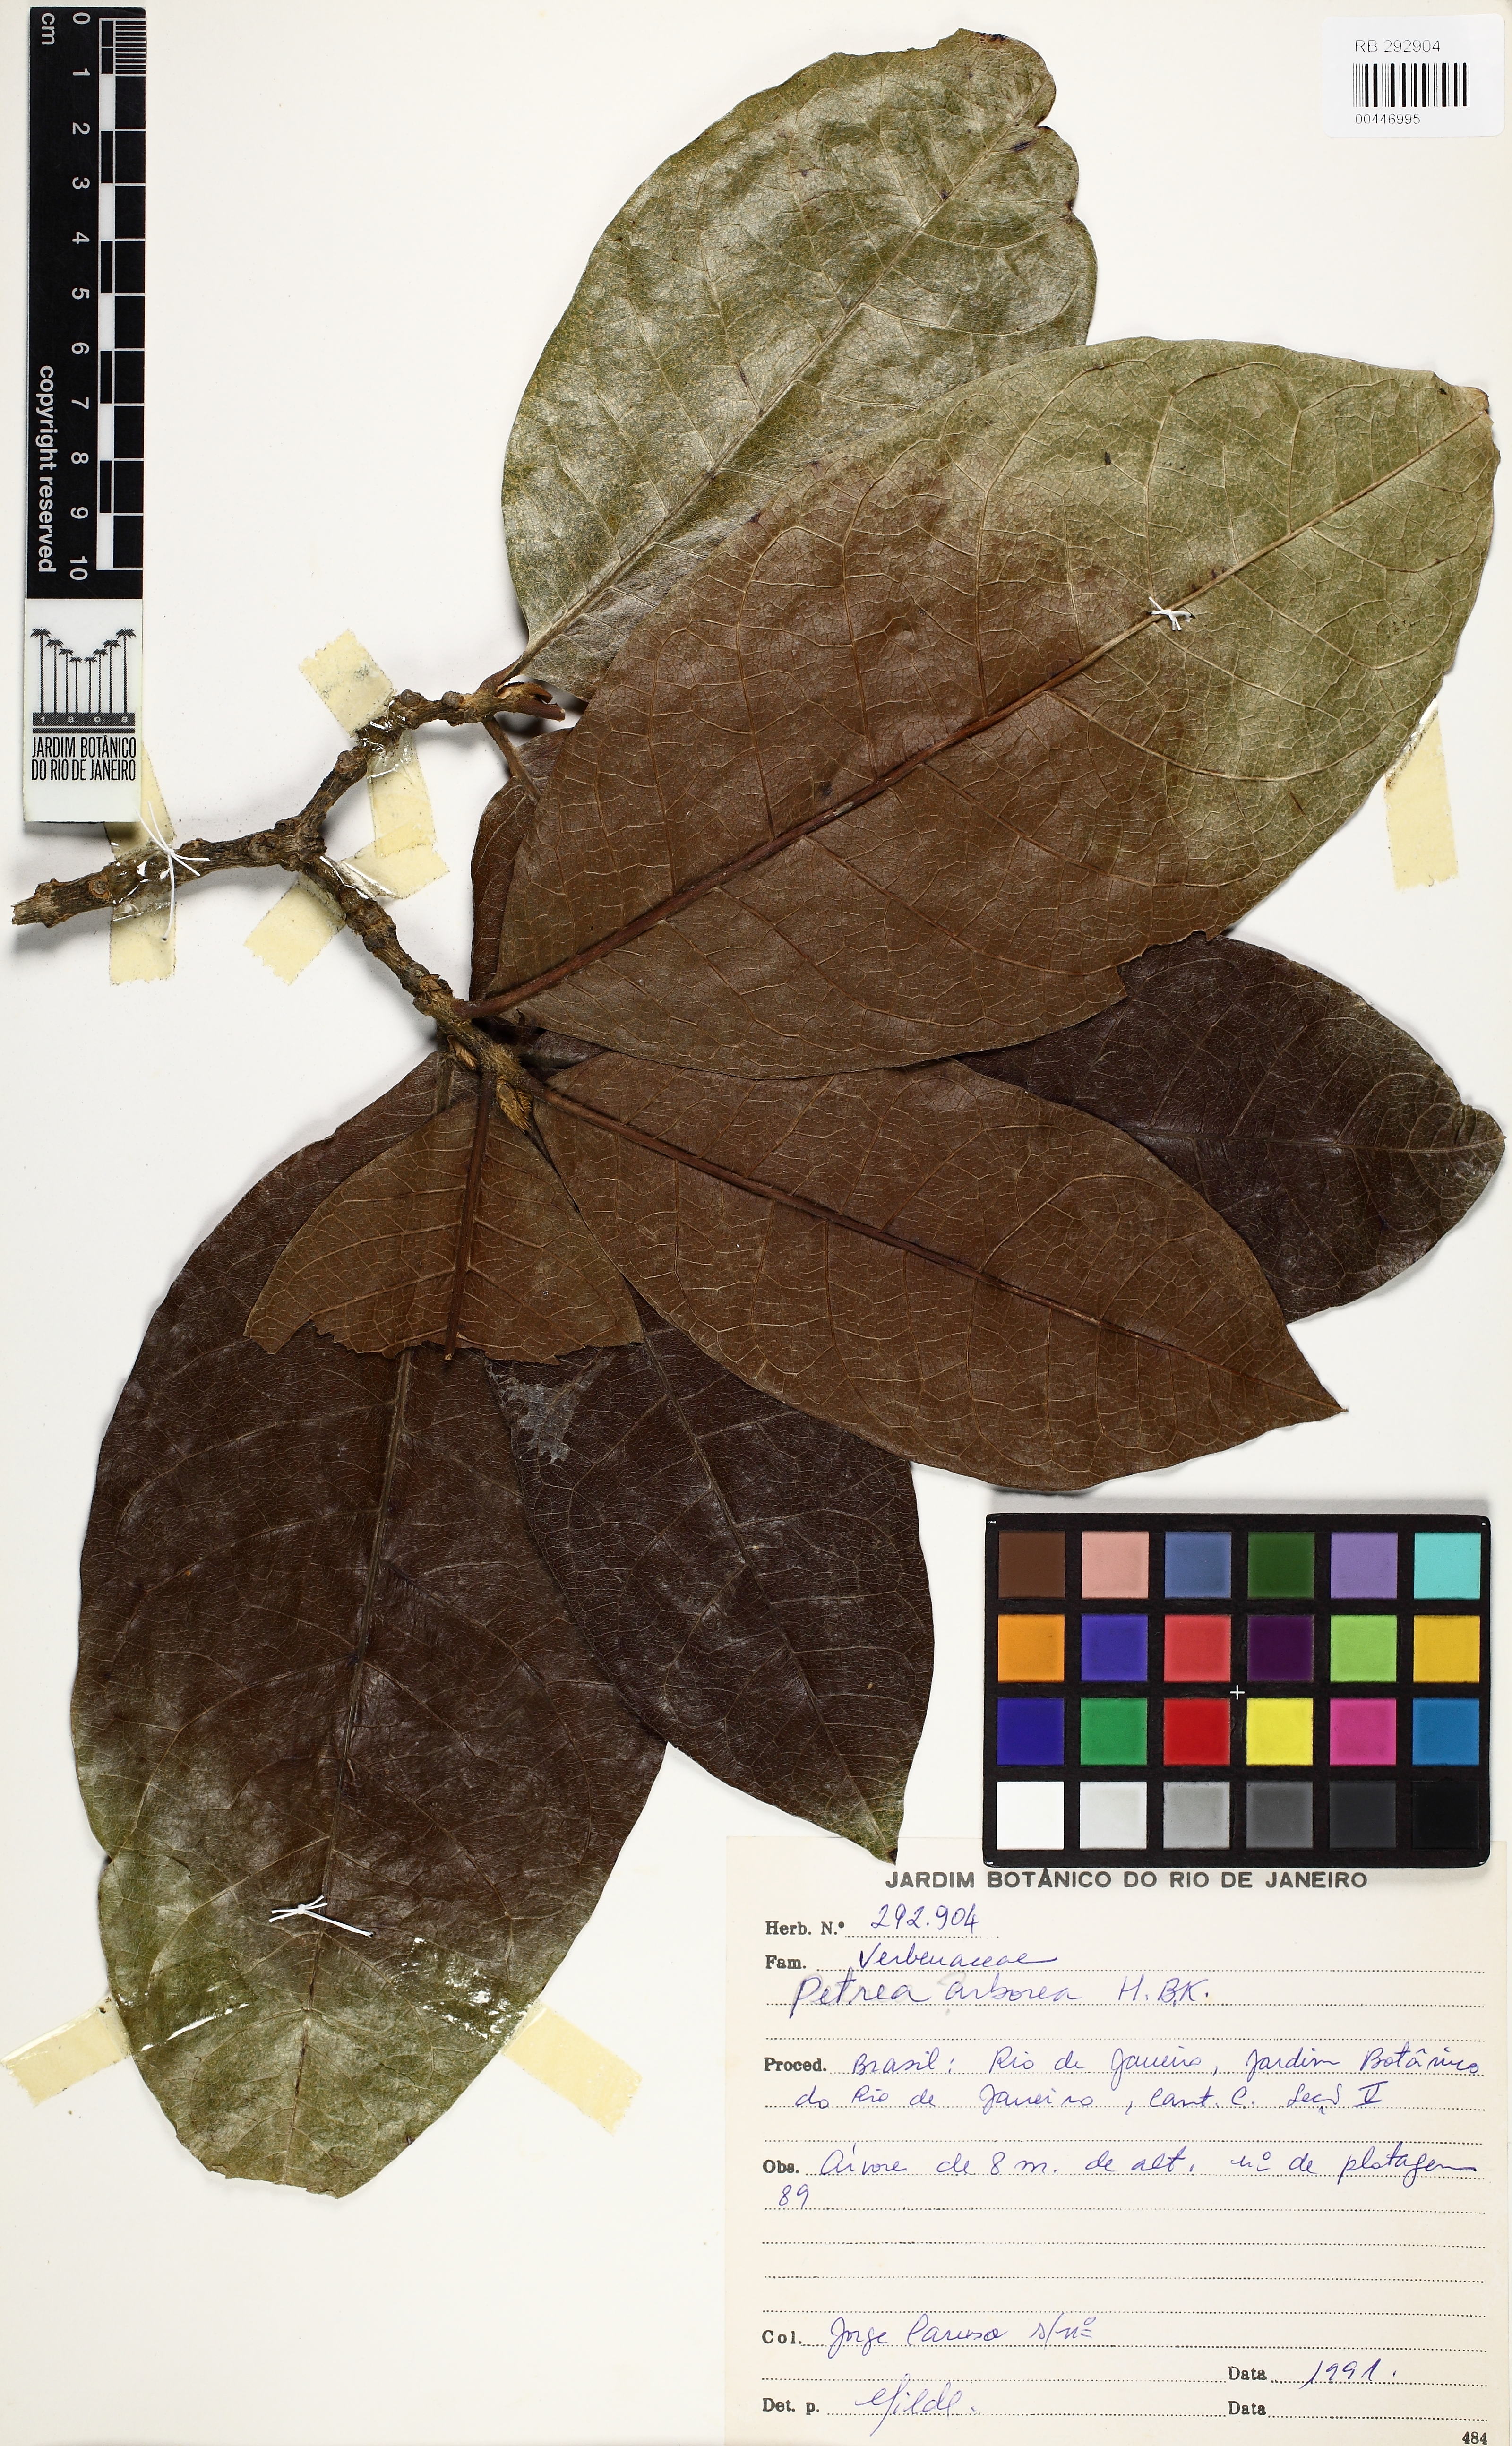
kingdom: Plantae
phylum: Tracheophyta
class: Magnoliopsida
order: Lamiales
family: Verbenaceae
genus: Petrea
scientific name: Petrea volubilis
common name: Queen's-wreath
